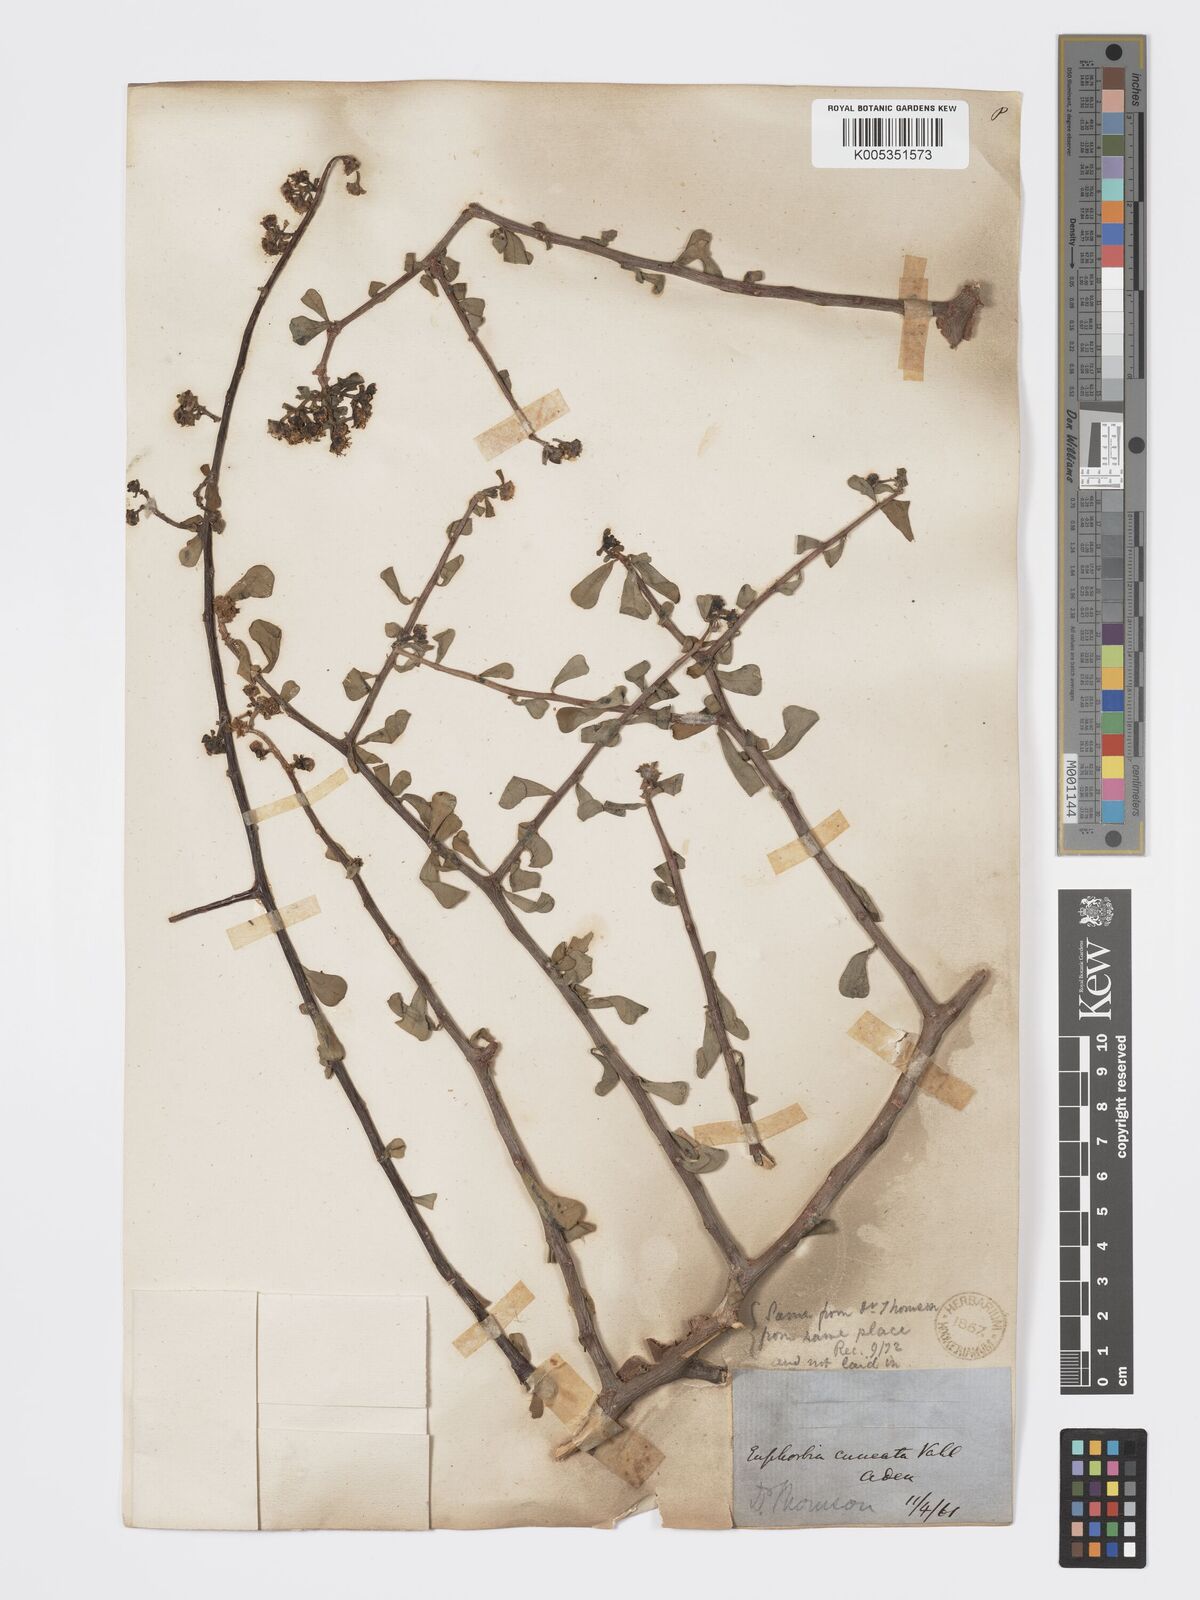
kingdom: Plantae
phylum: Tracheophyta
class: Magnoliopsida
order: Malpighiales
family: Euphorbiaceae
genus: Euphorbia
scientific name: Euphorbia cuneata
